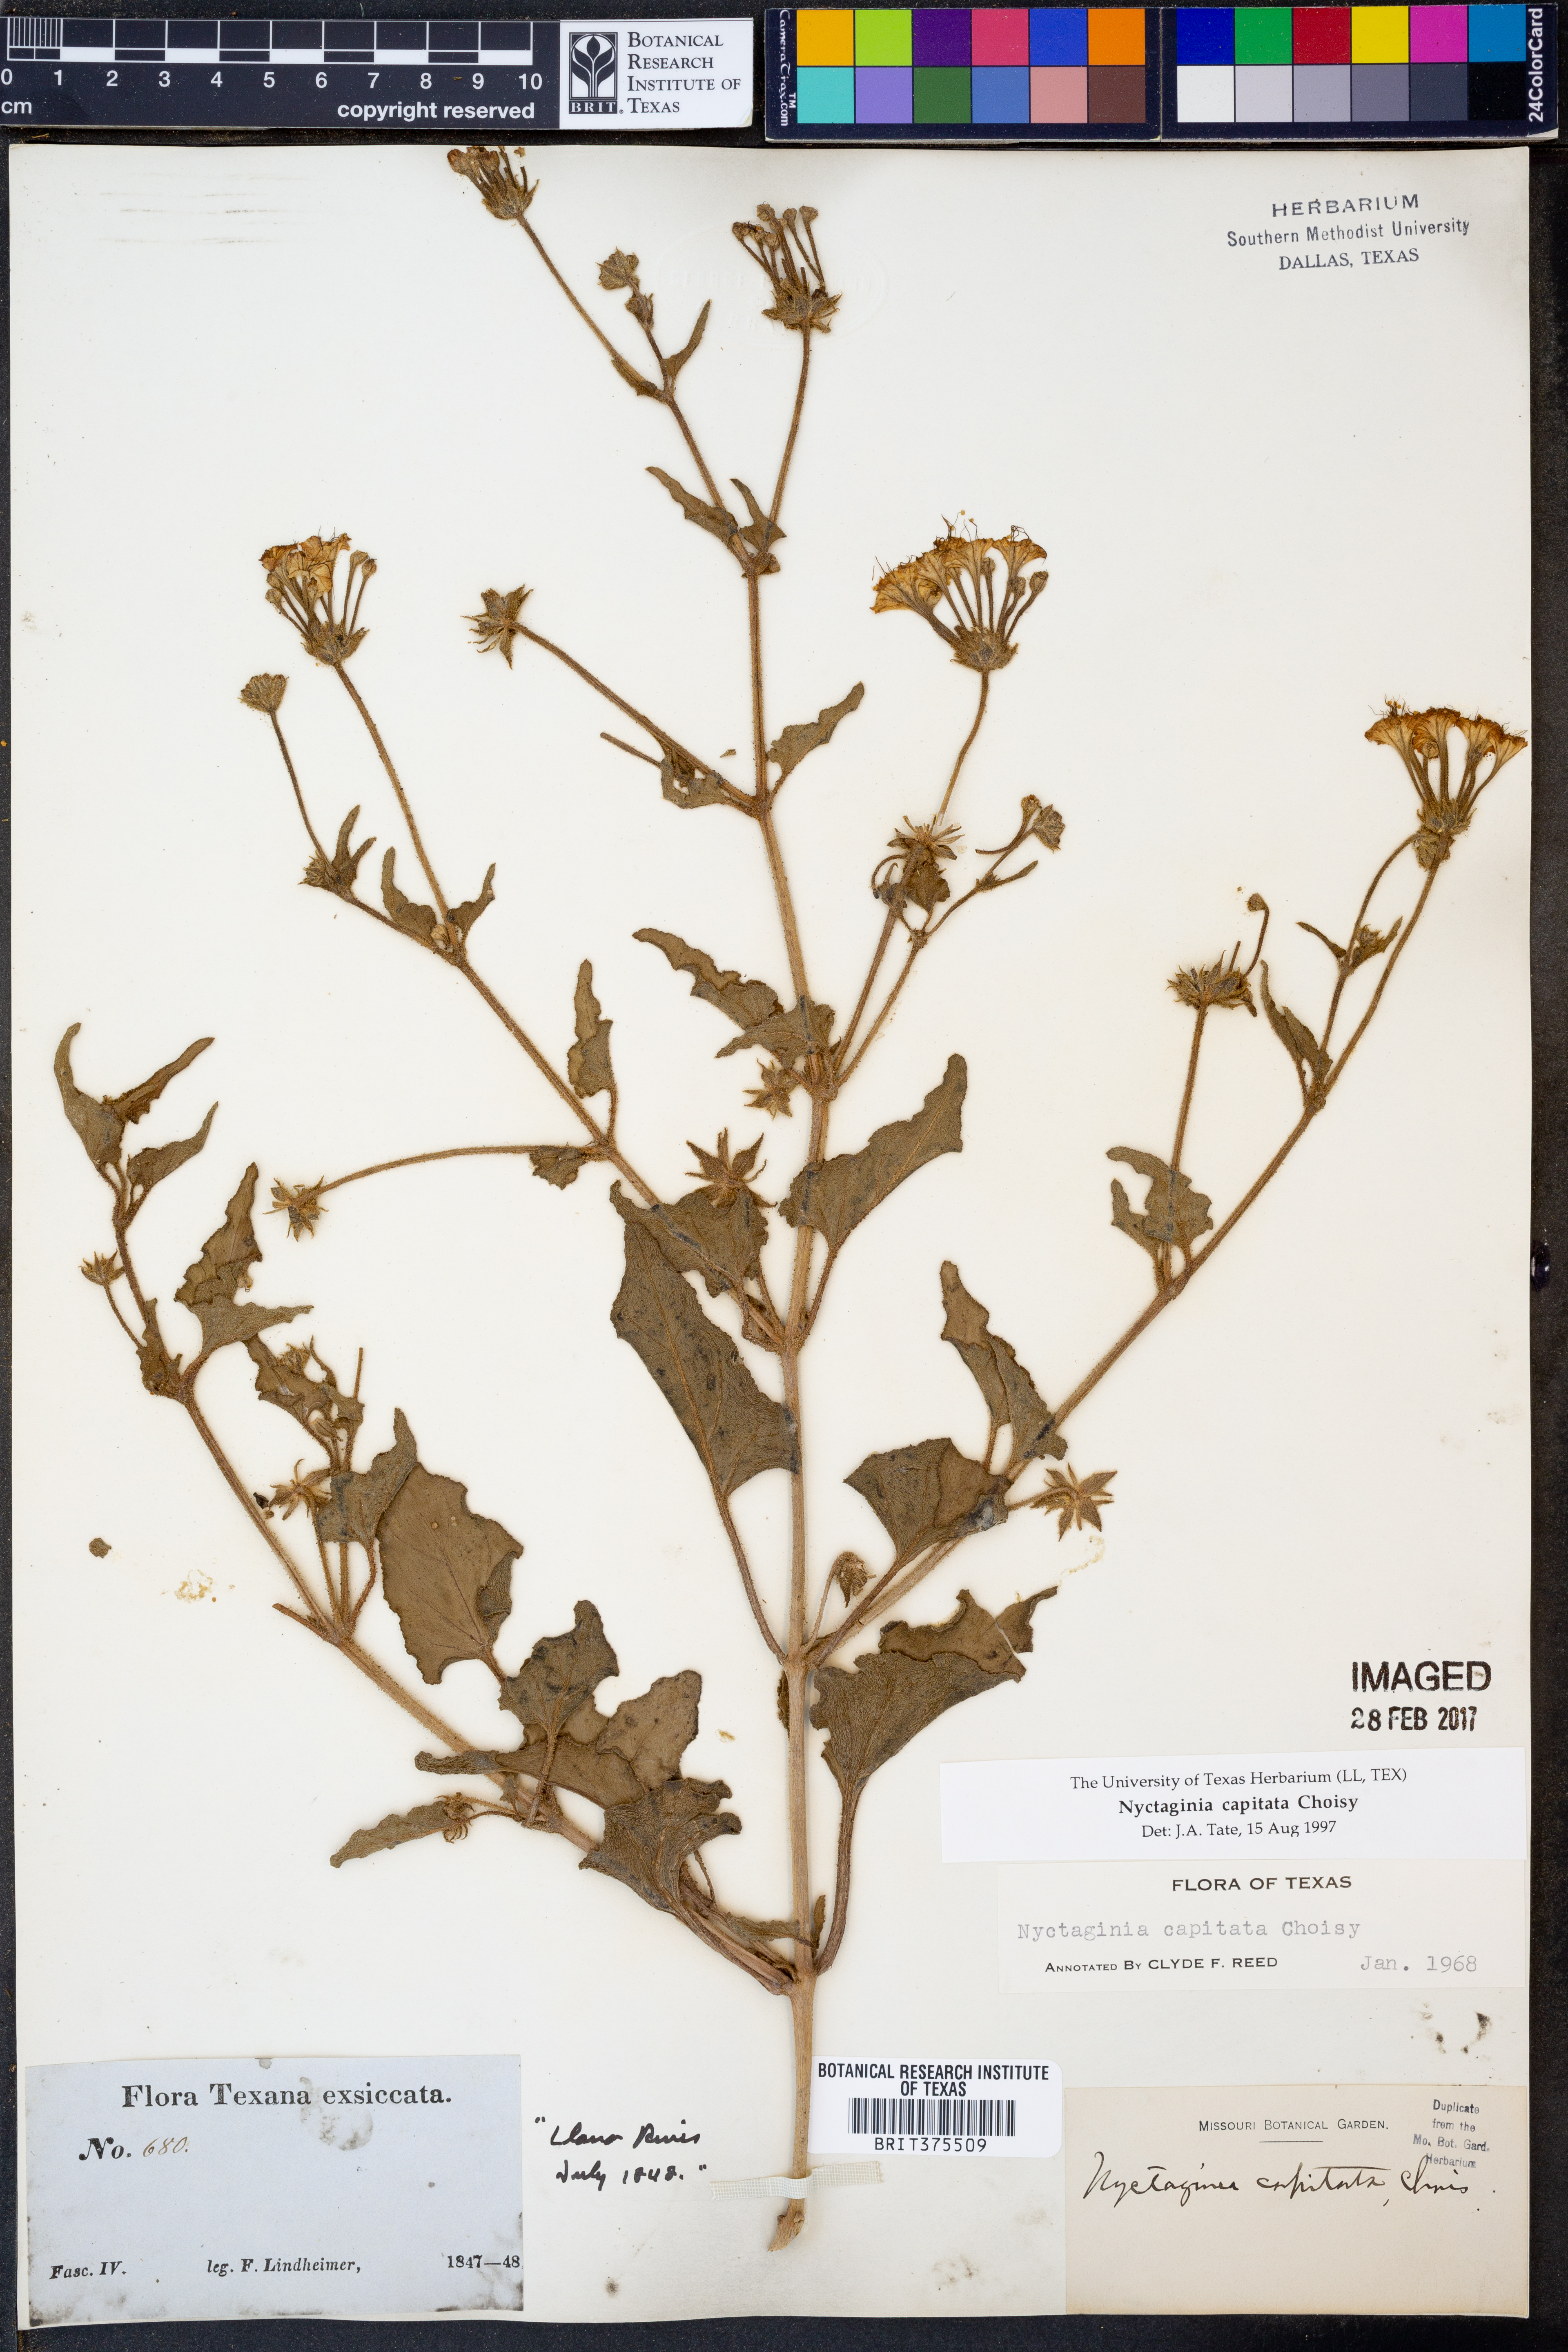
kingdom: Plantae
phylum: Tracheophyta
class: Magnoliopsida
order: Caryophyllales
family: Nyctaginaceae
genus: Nyctaginia
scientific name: Nyctaginia capitata
